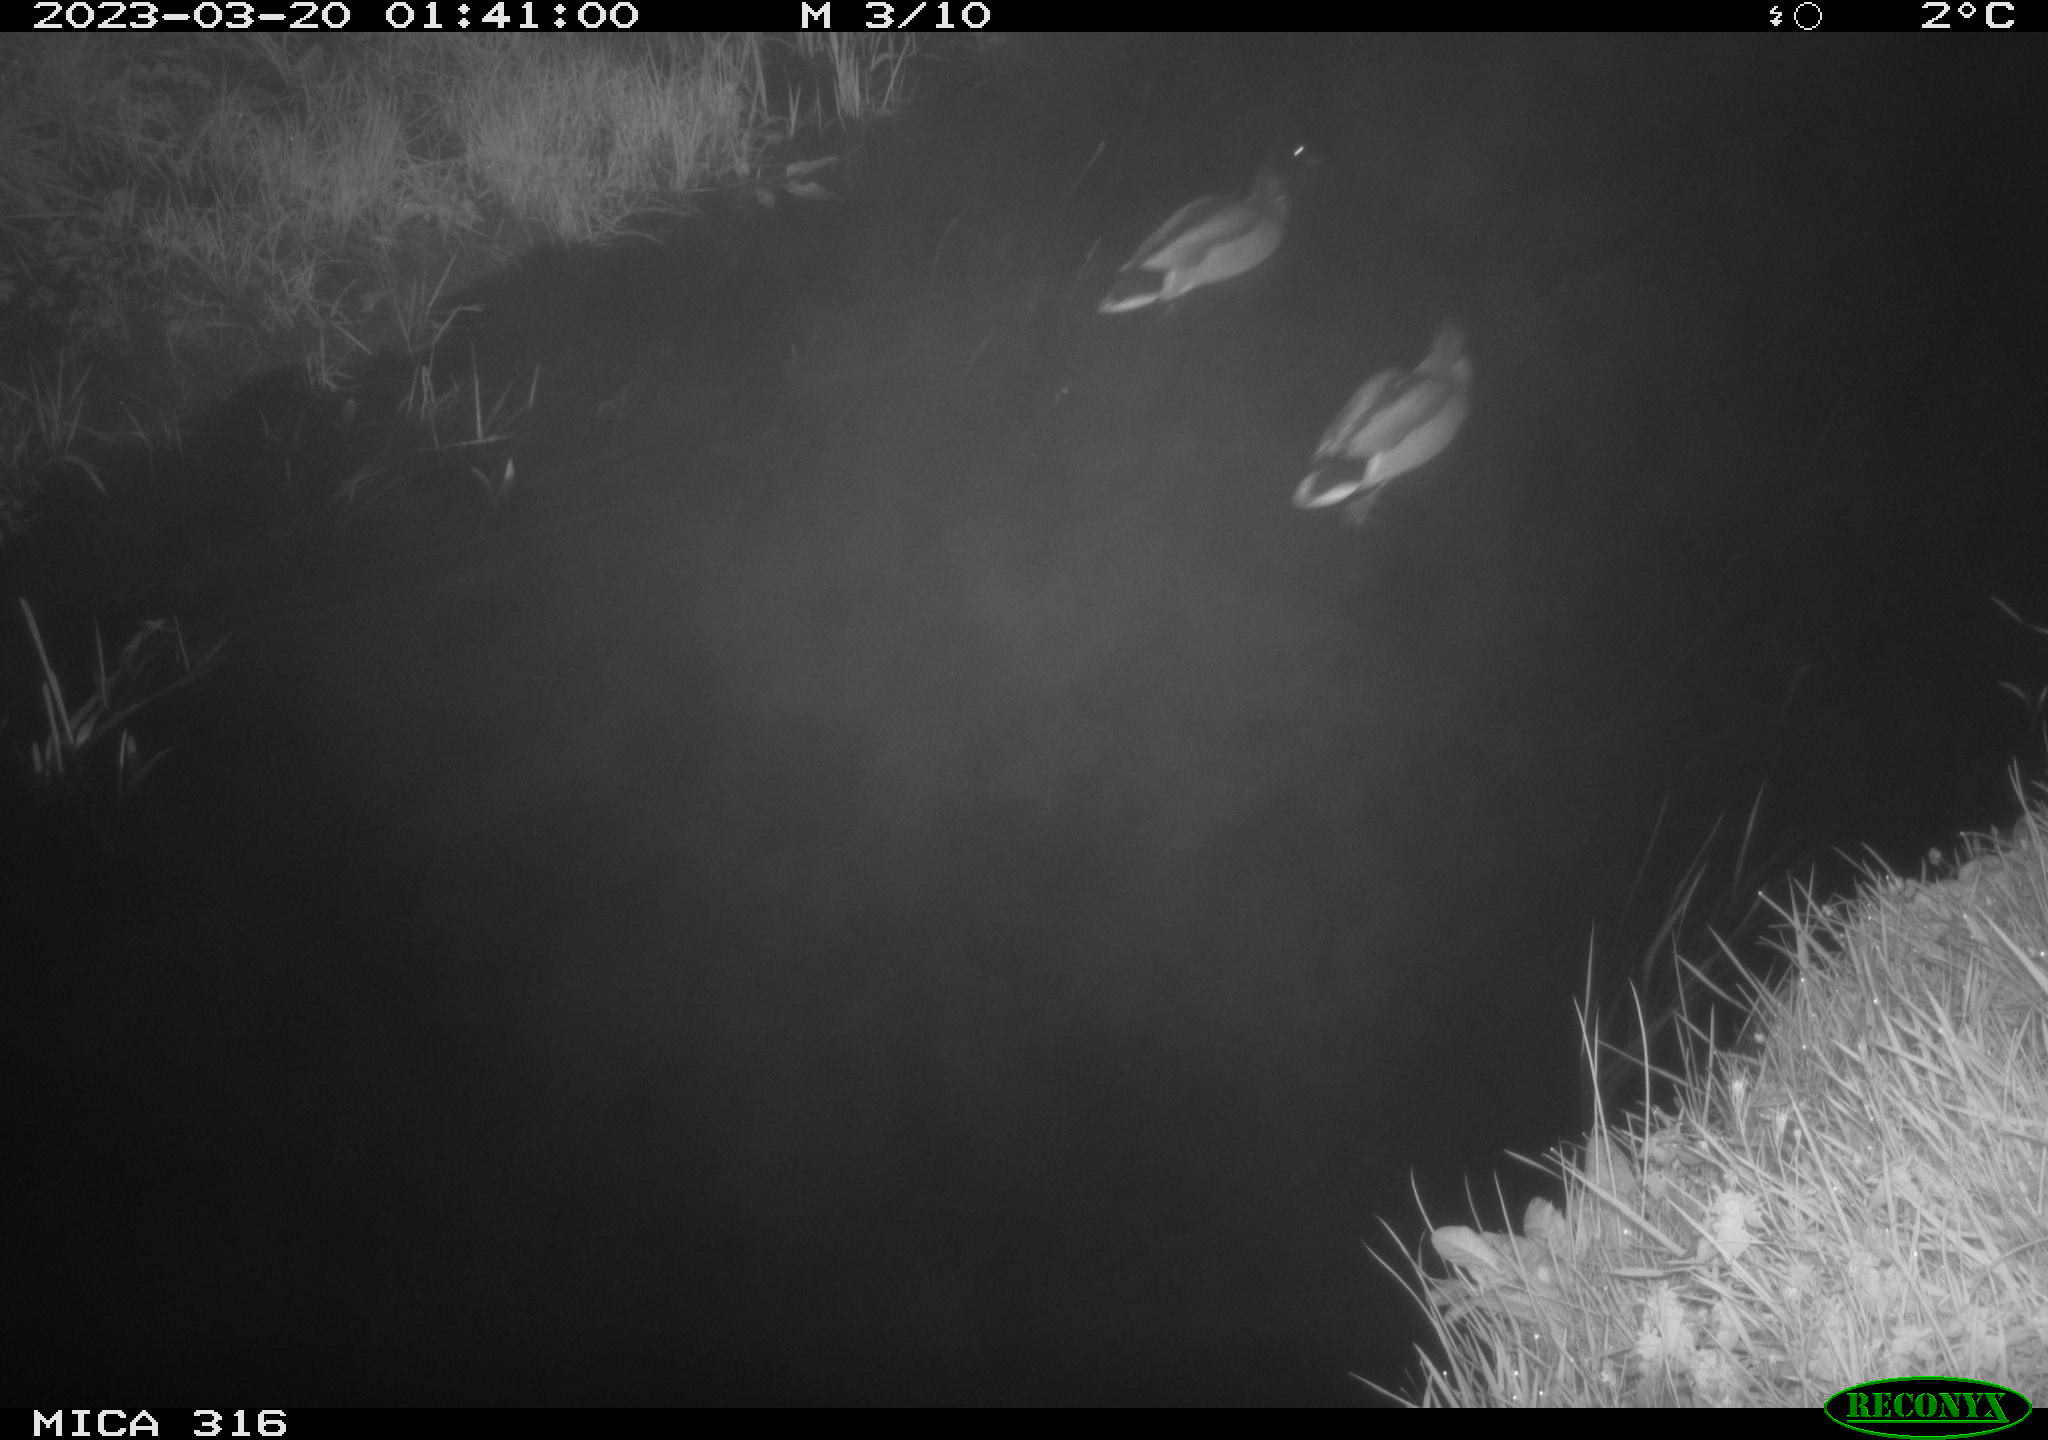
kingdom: Animalia
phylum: Chordata
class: Aves
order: Anseriformes
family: Anatidae
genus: Anas
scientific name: Anas
